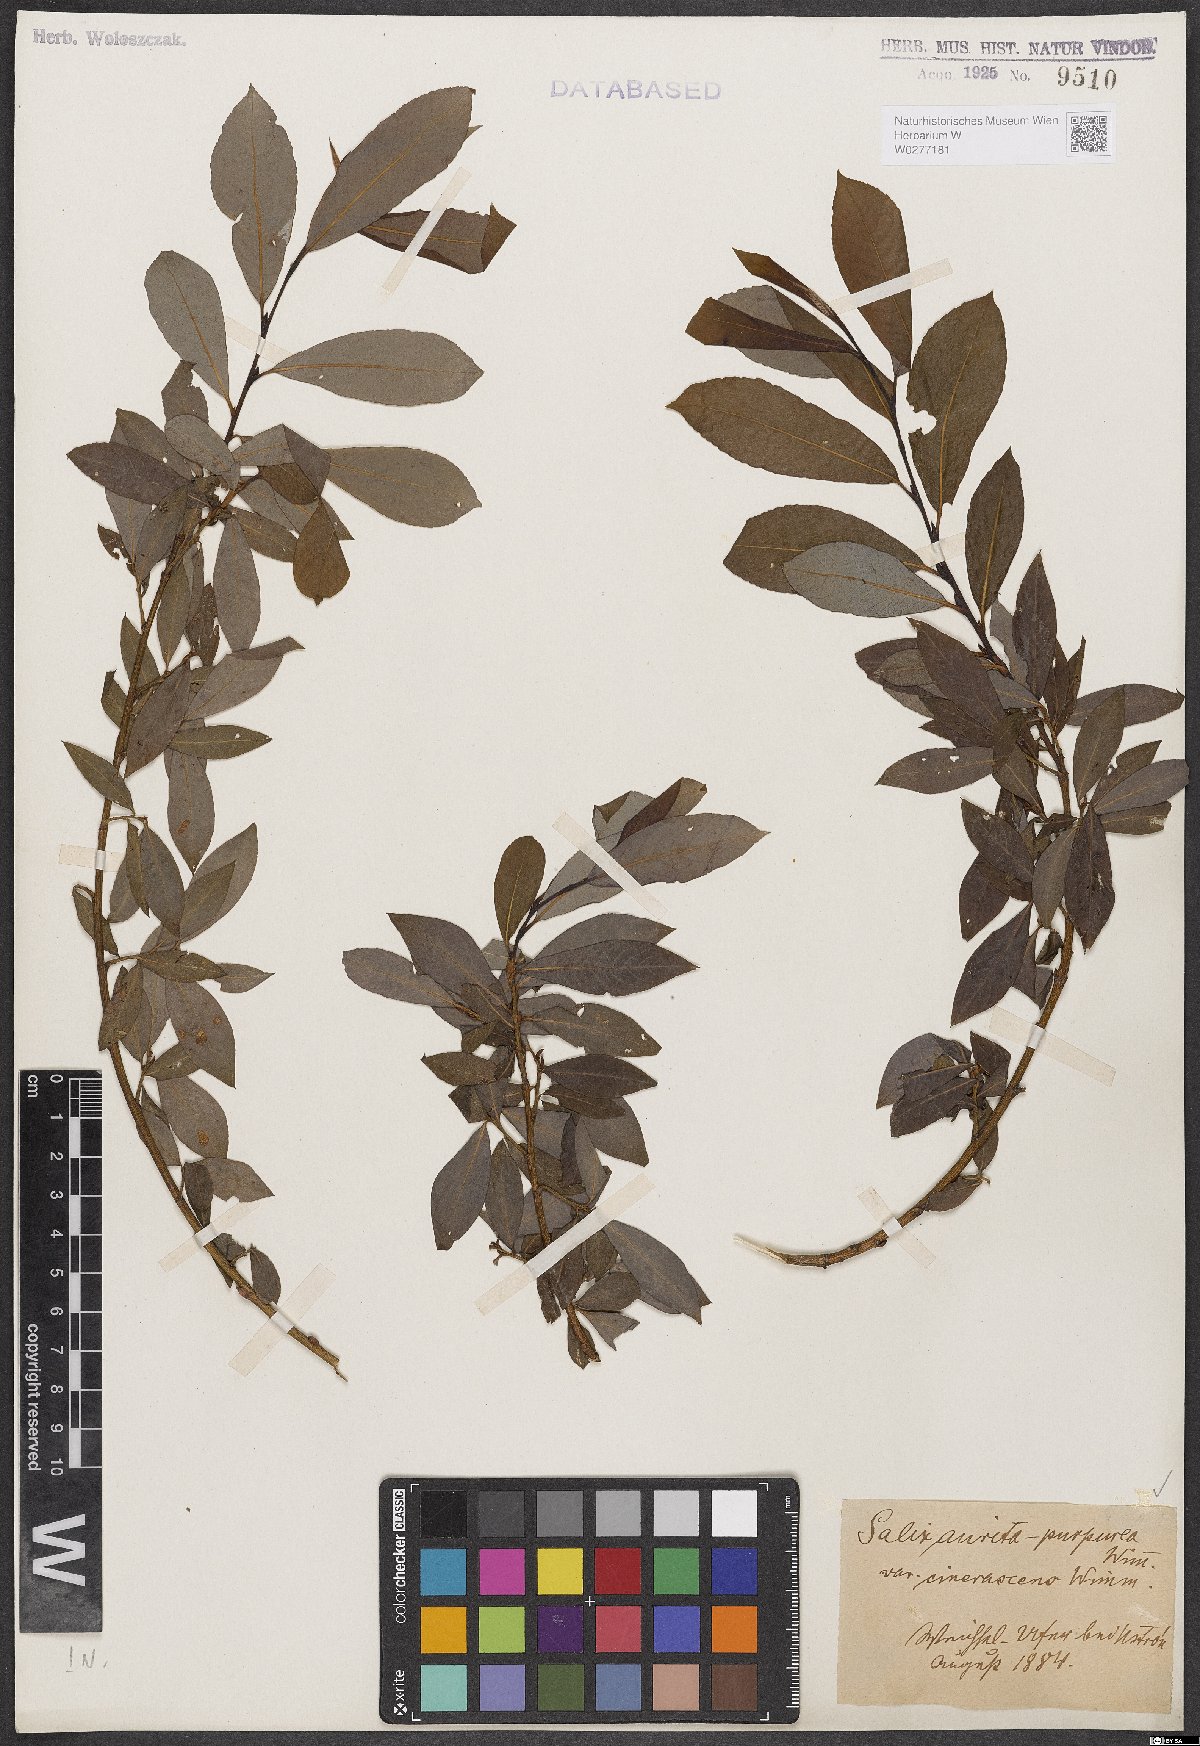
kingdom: Plantae
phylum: Tracheophyta
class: Magnoliopsida
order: Malpighiales
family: Salicaceae
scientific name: Salicaceae
